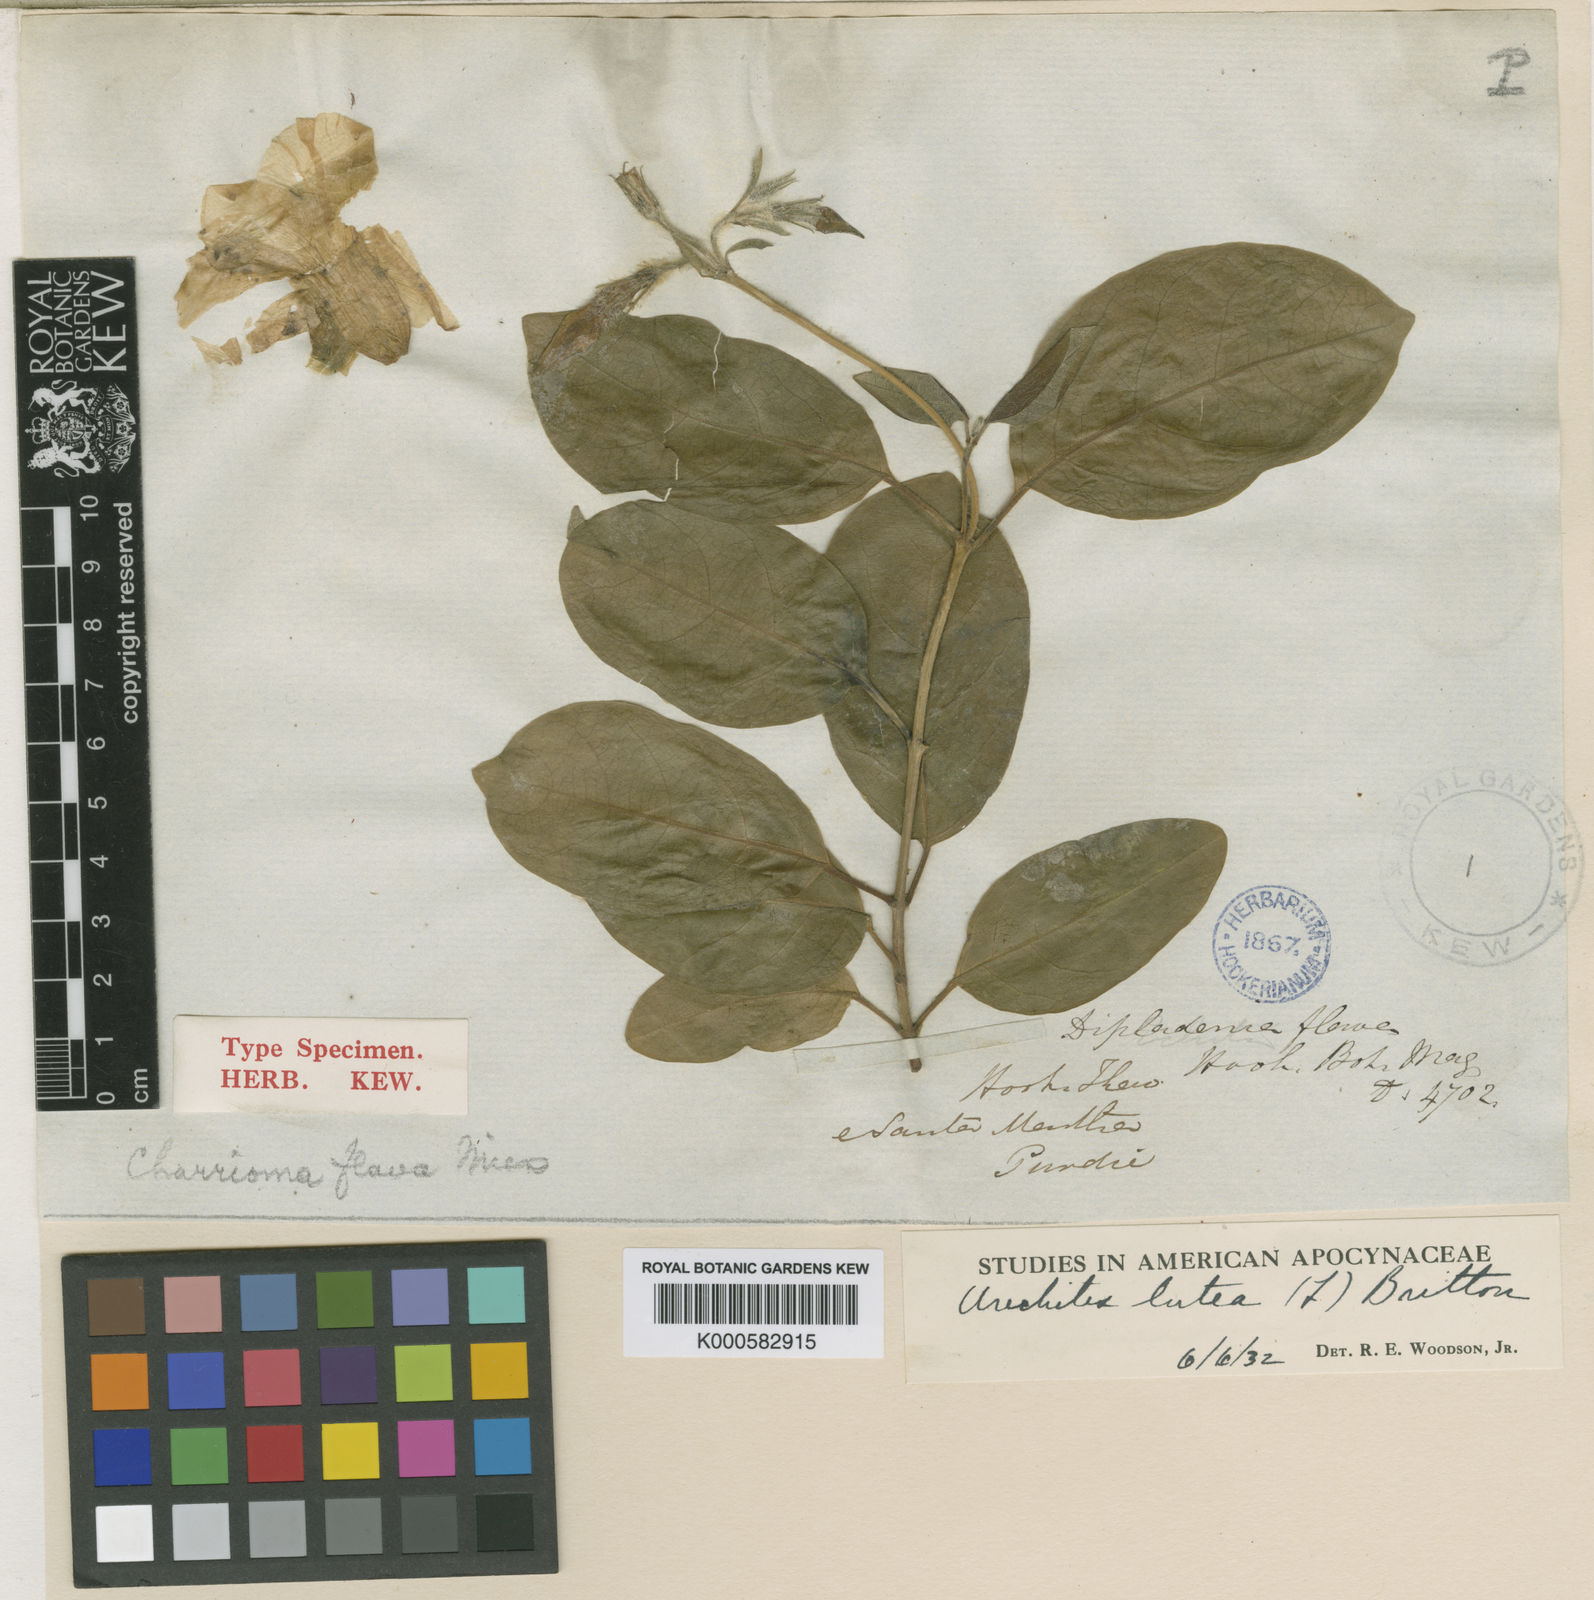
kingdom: Plantae
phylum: Tracheophyta
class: Magnoliopsida
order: Gentianales
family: Apocynaceae
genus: Pentalinon
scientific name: Pentalinon luteum
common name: Licebush
